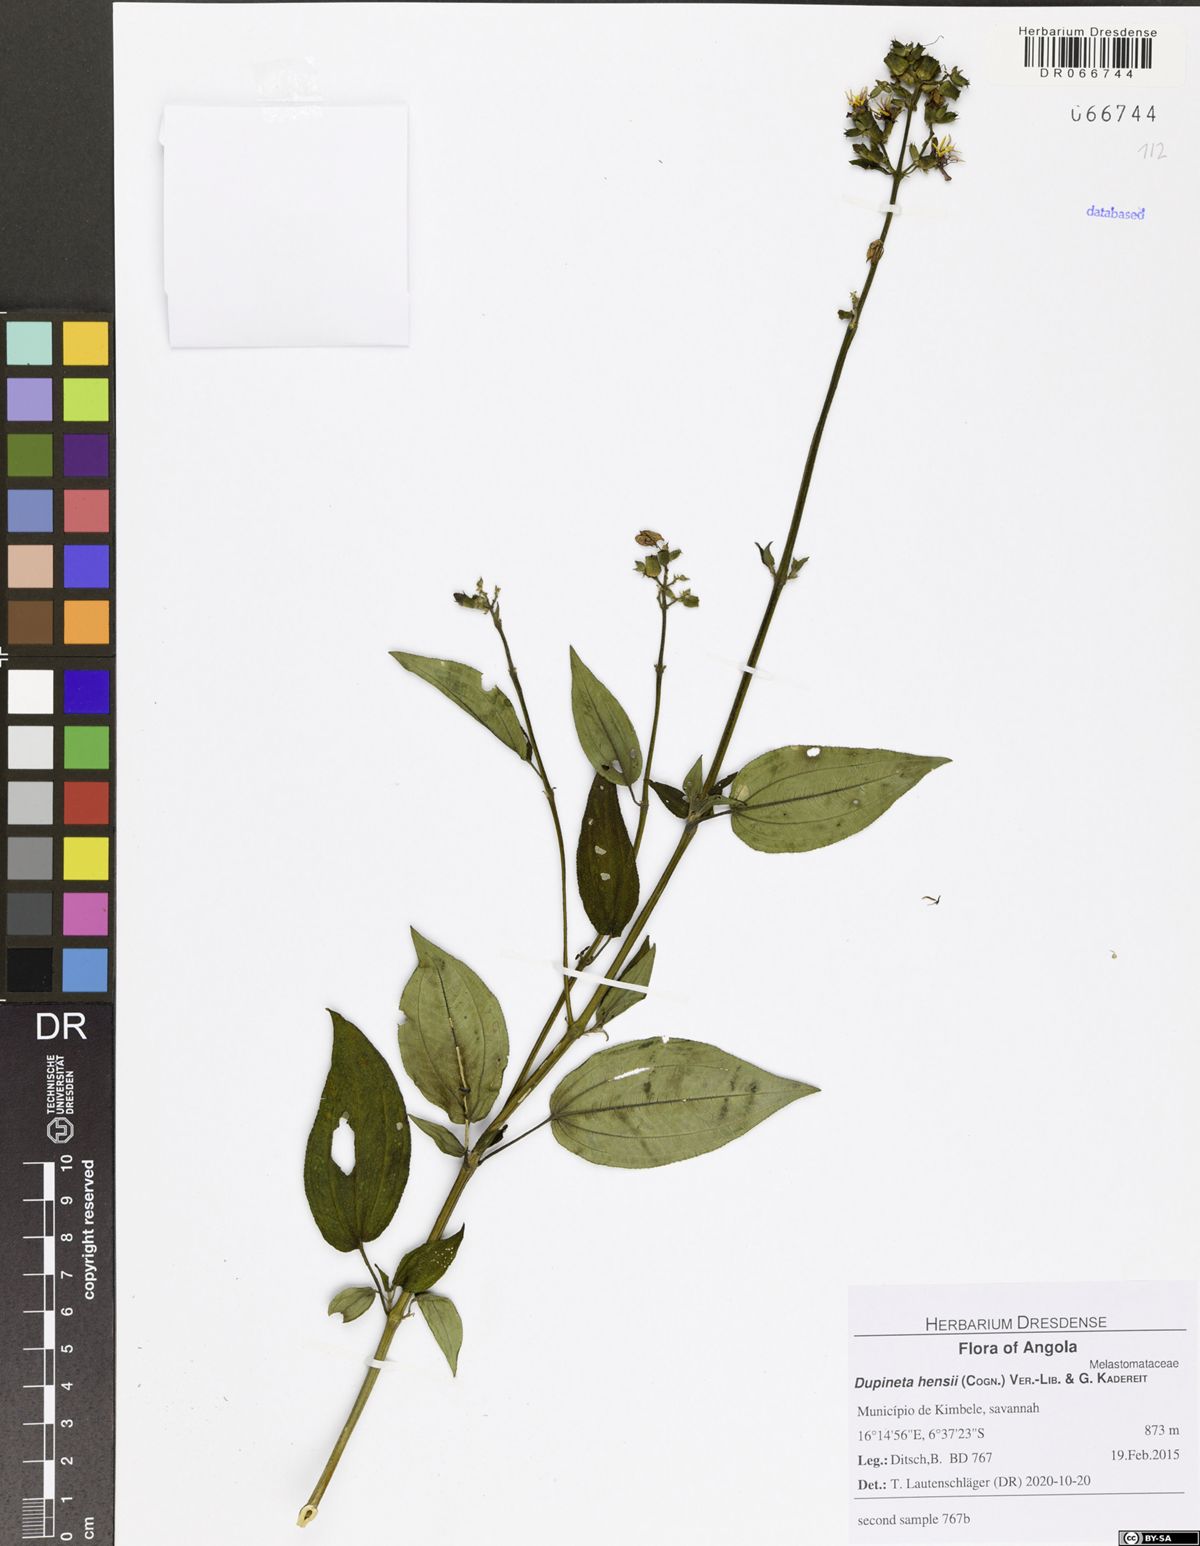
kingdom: Plantae
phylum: Tracheophyta
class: Magnoliopsida
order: Myrtales
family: Melastomataceae
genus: Dupineta
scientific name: Dupineta hensii
